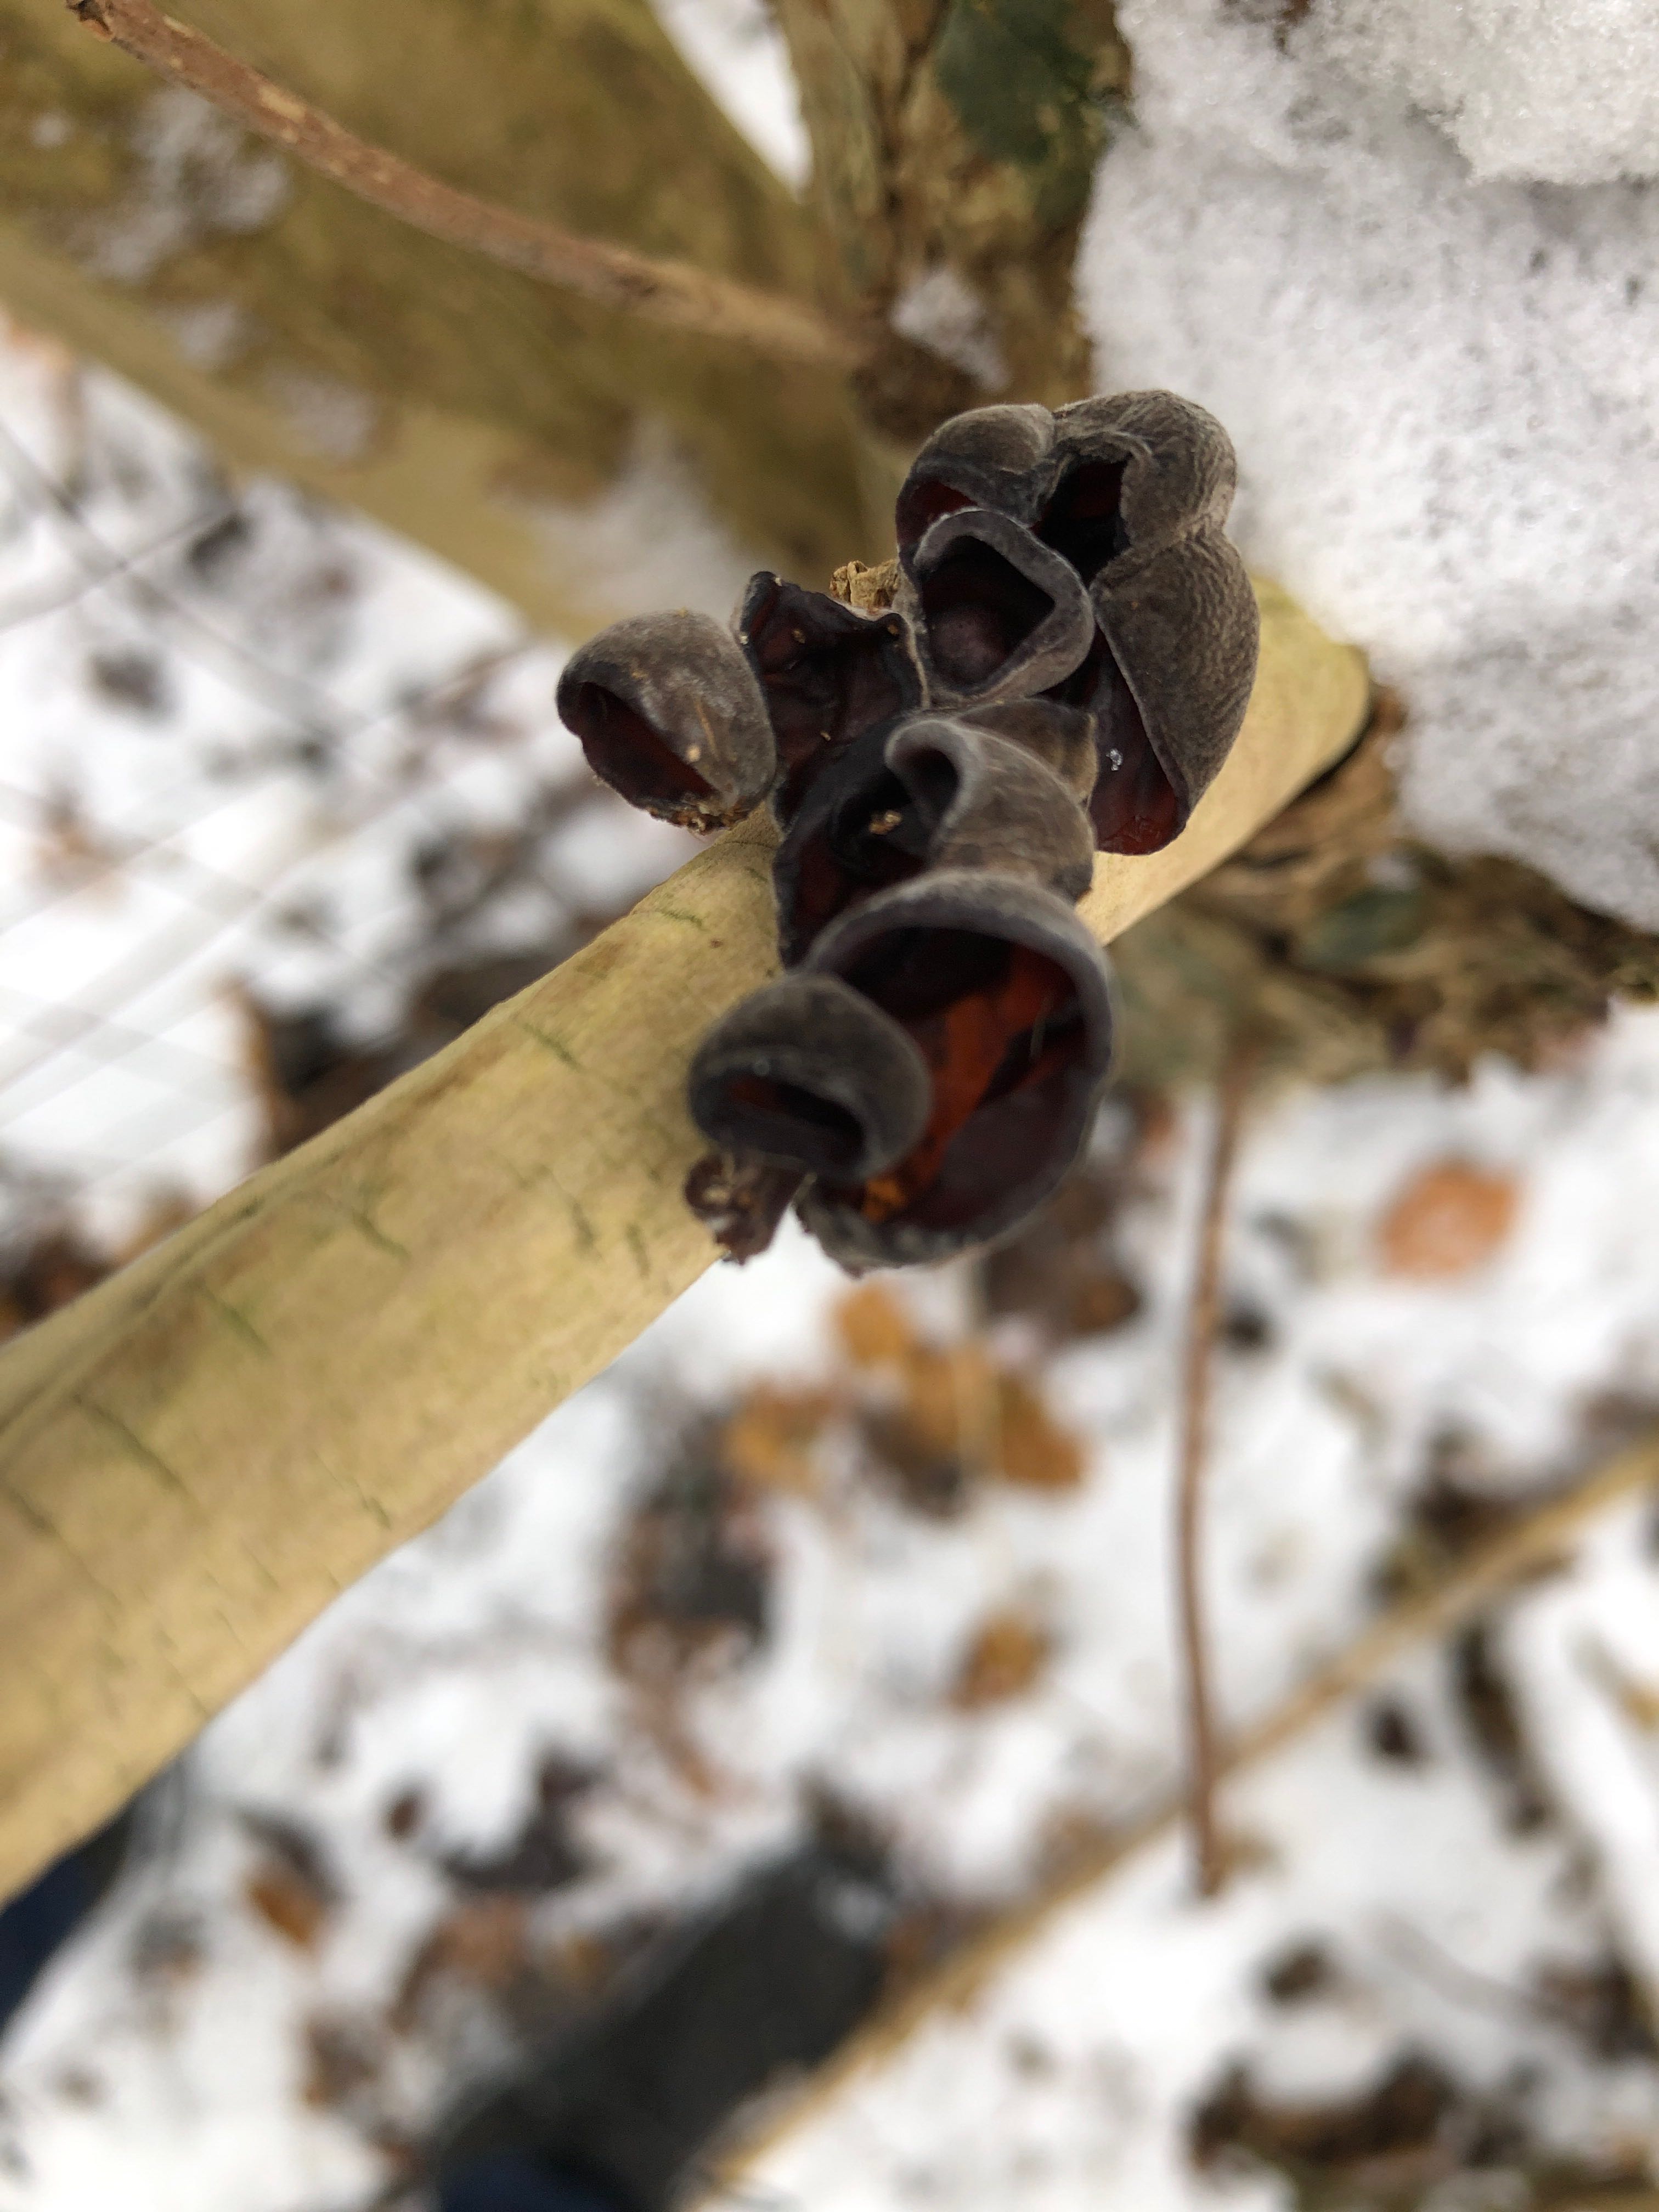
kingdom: Fungi
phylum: Basidiomycota
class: Agaricomycetes
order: Auriculariales
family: Auriculariaceae
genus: Auricularia
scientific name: Auricularia auricula-judae
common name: almindelig judasøre
